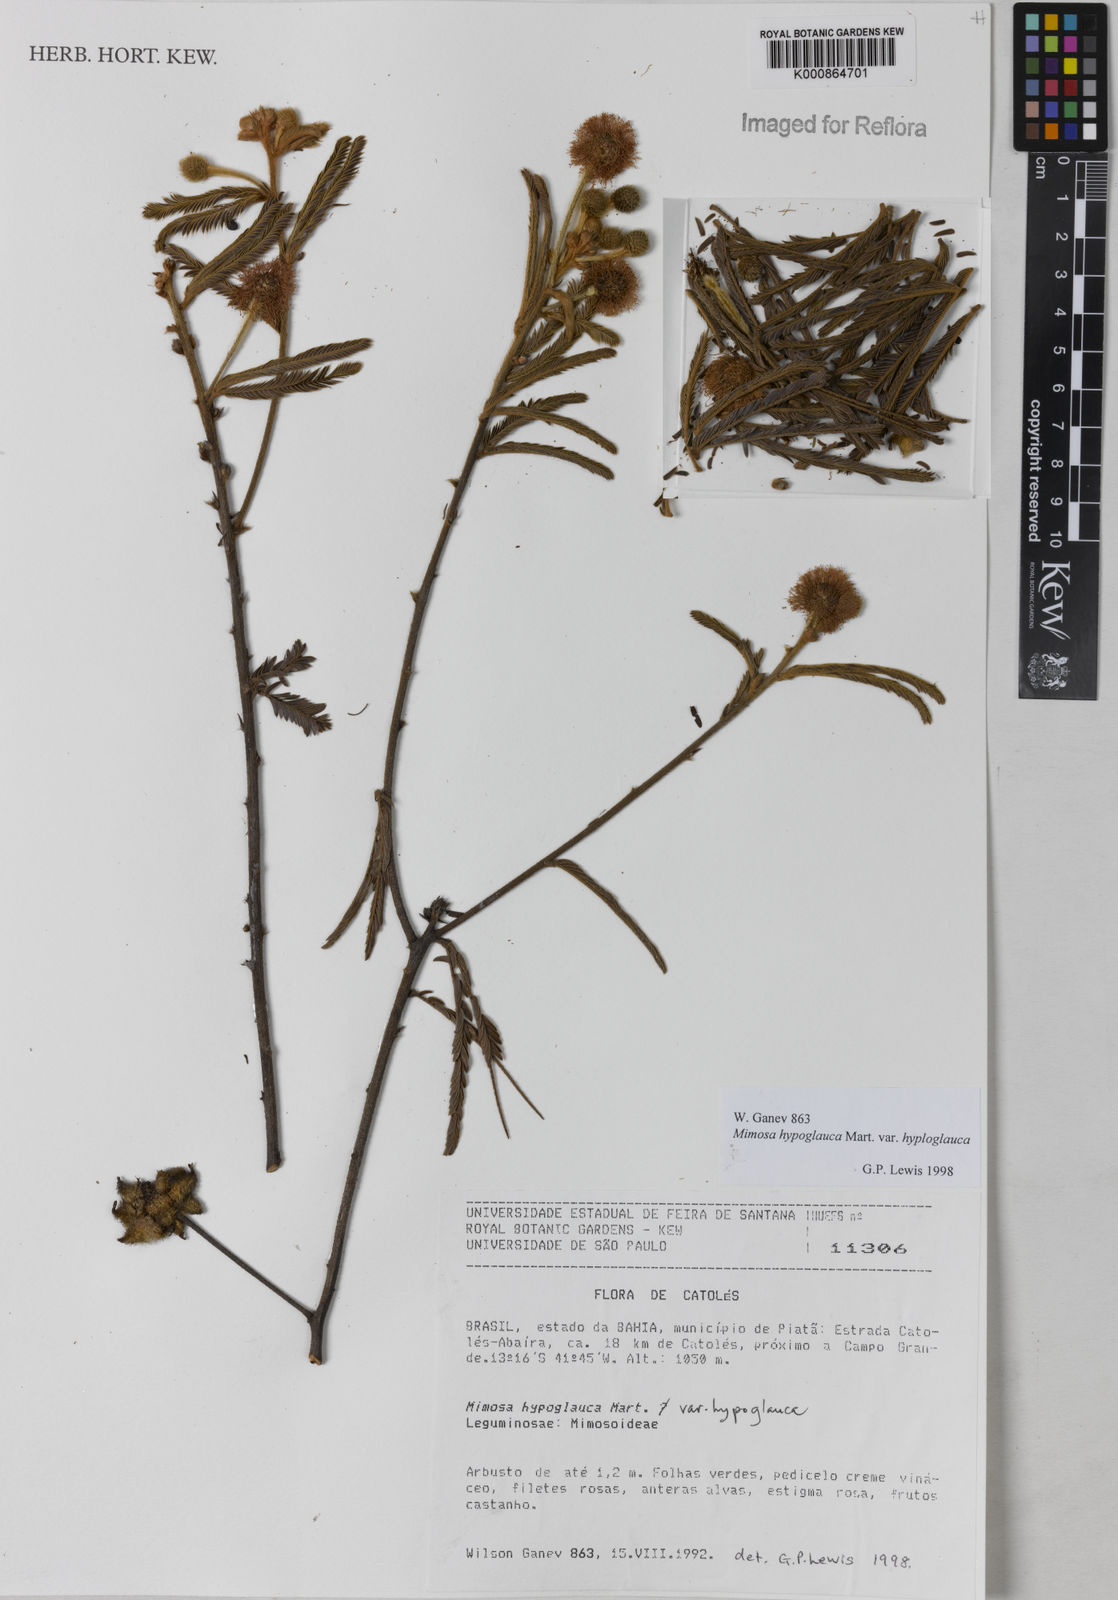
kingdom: Plantae
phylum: Tracheophyta
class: Magnoliopsida
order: Fabales
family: Fabaceae
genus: Mimosa
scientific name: Mimosa hypoglauca
